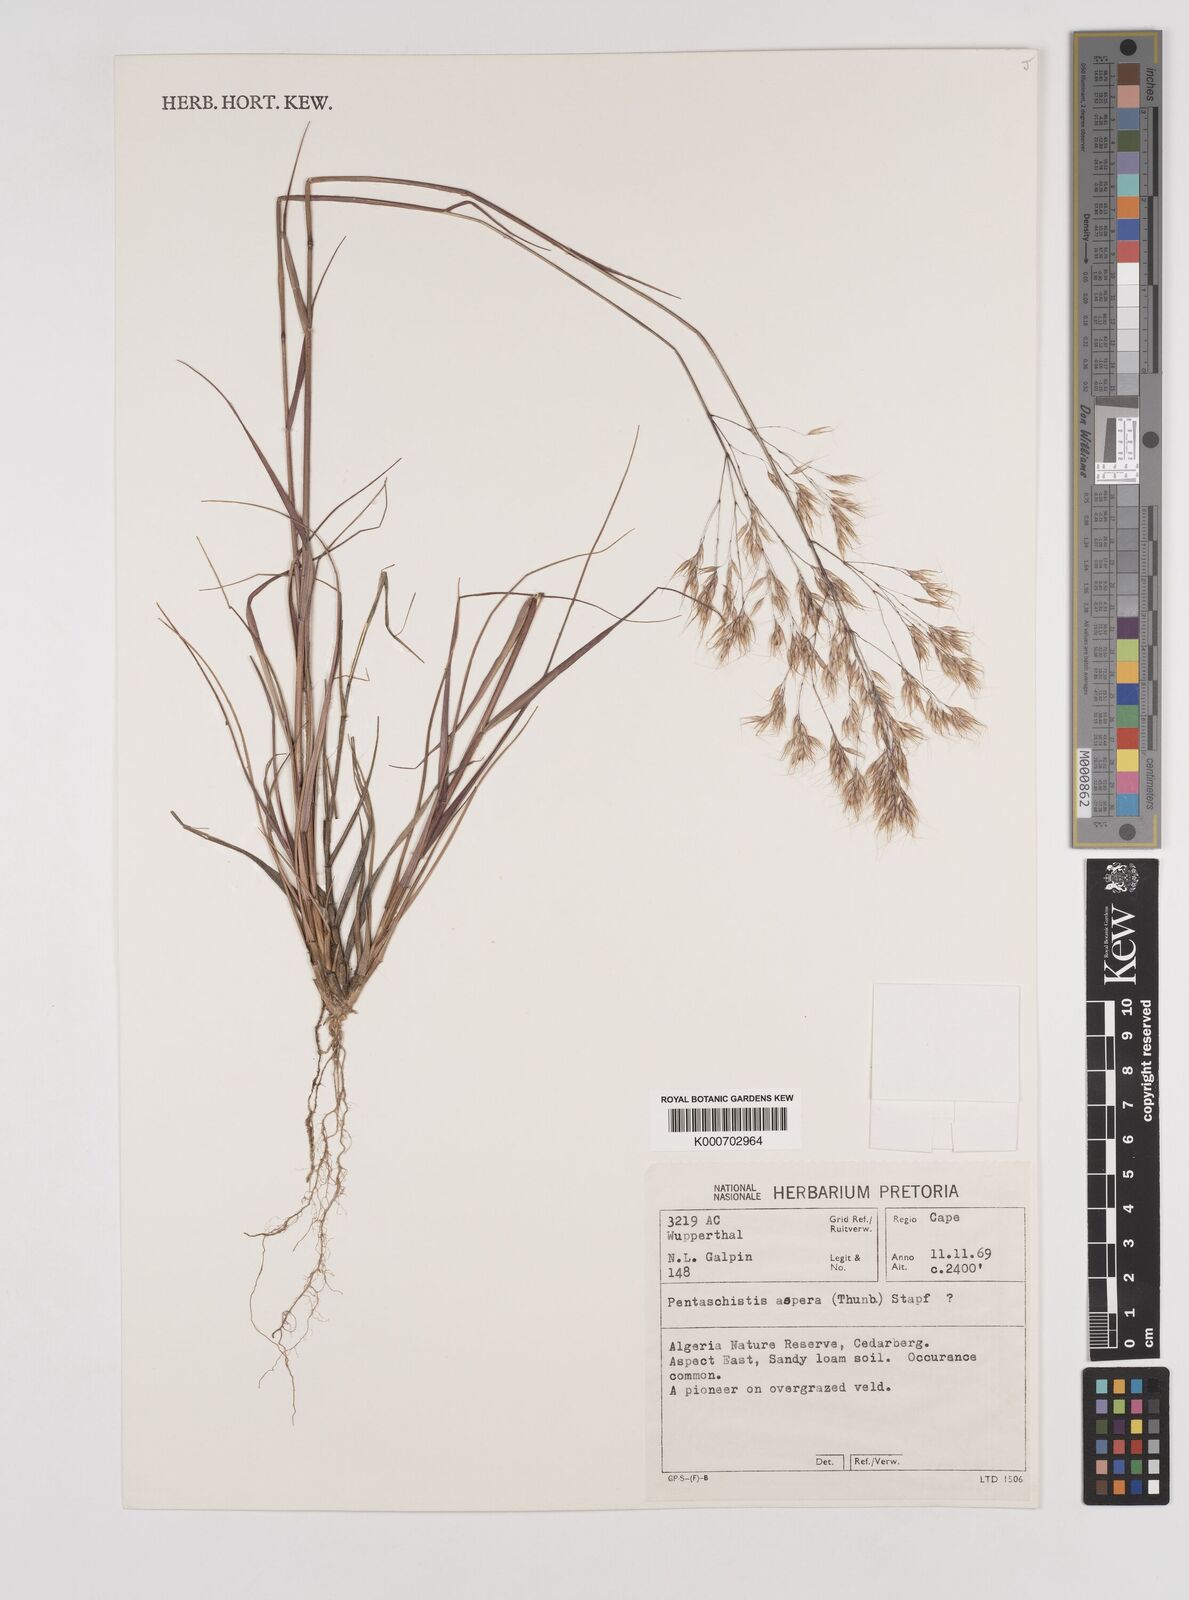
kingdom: Plantae
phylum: Tracheophyta
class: Liliopsida
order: Poales
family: Poaceae
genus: Pentameris
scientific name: Pentameris rupestris
